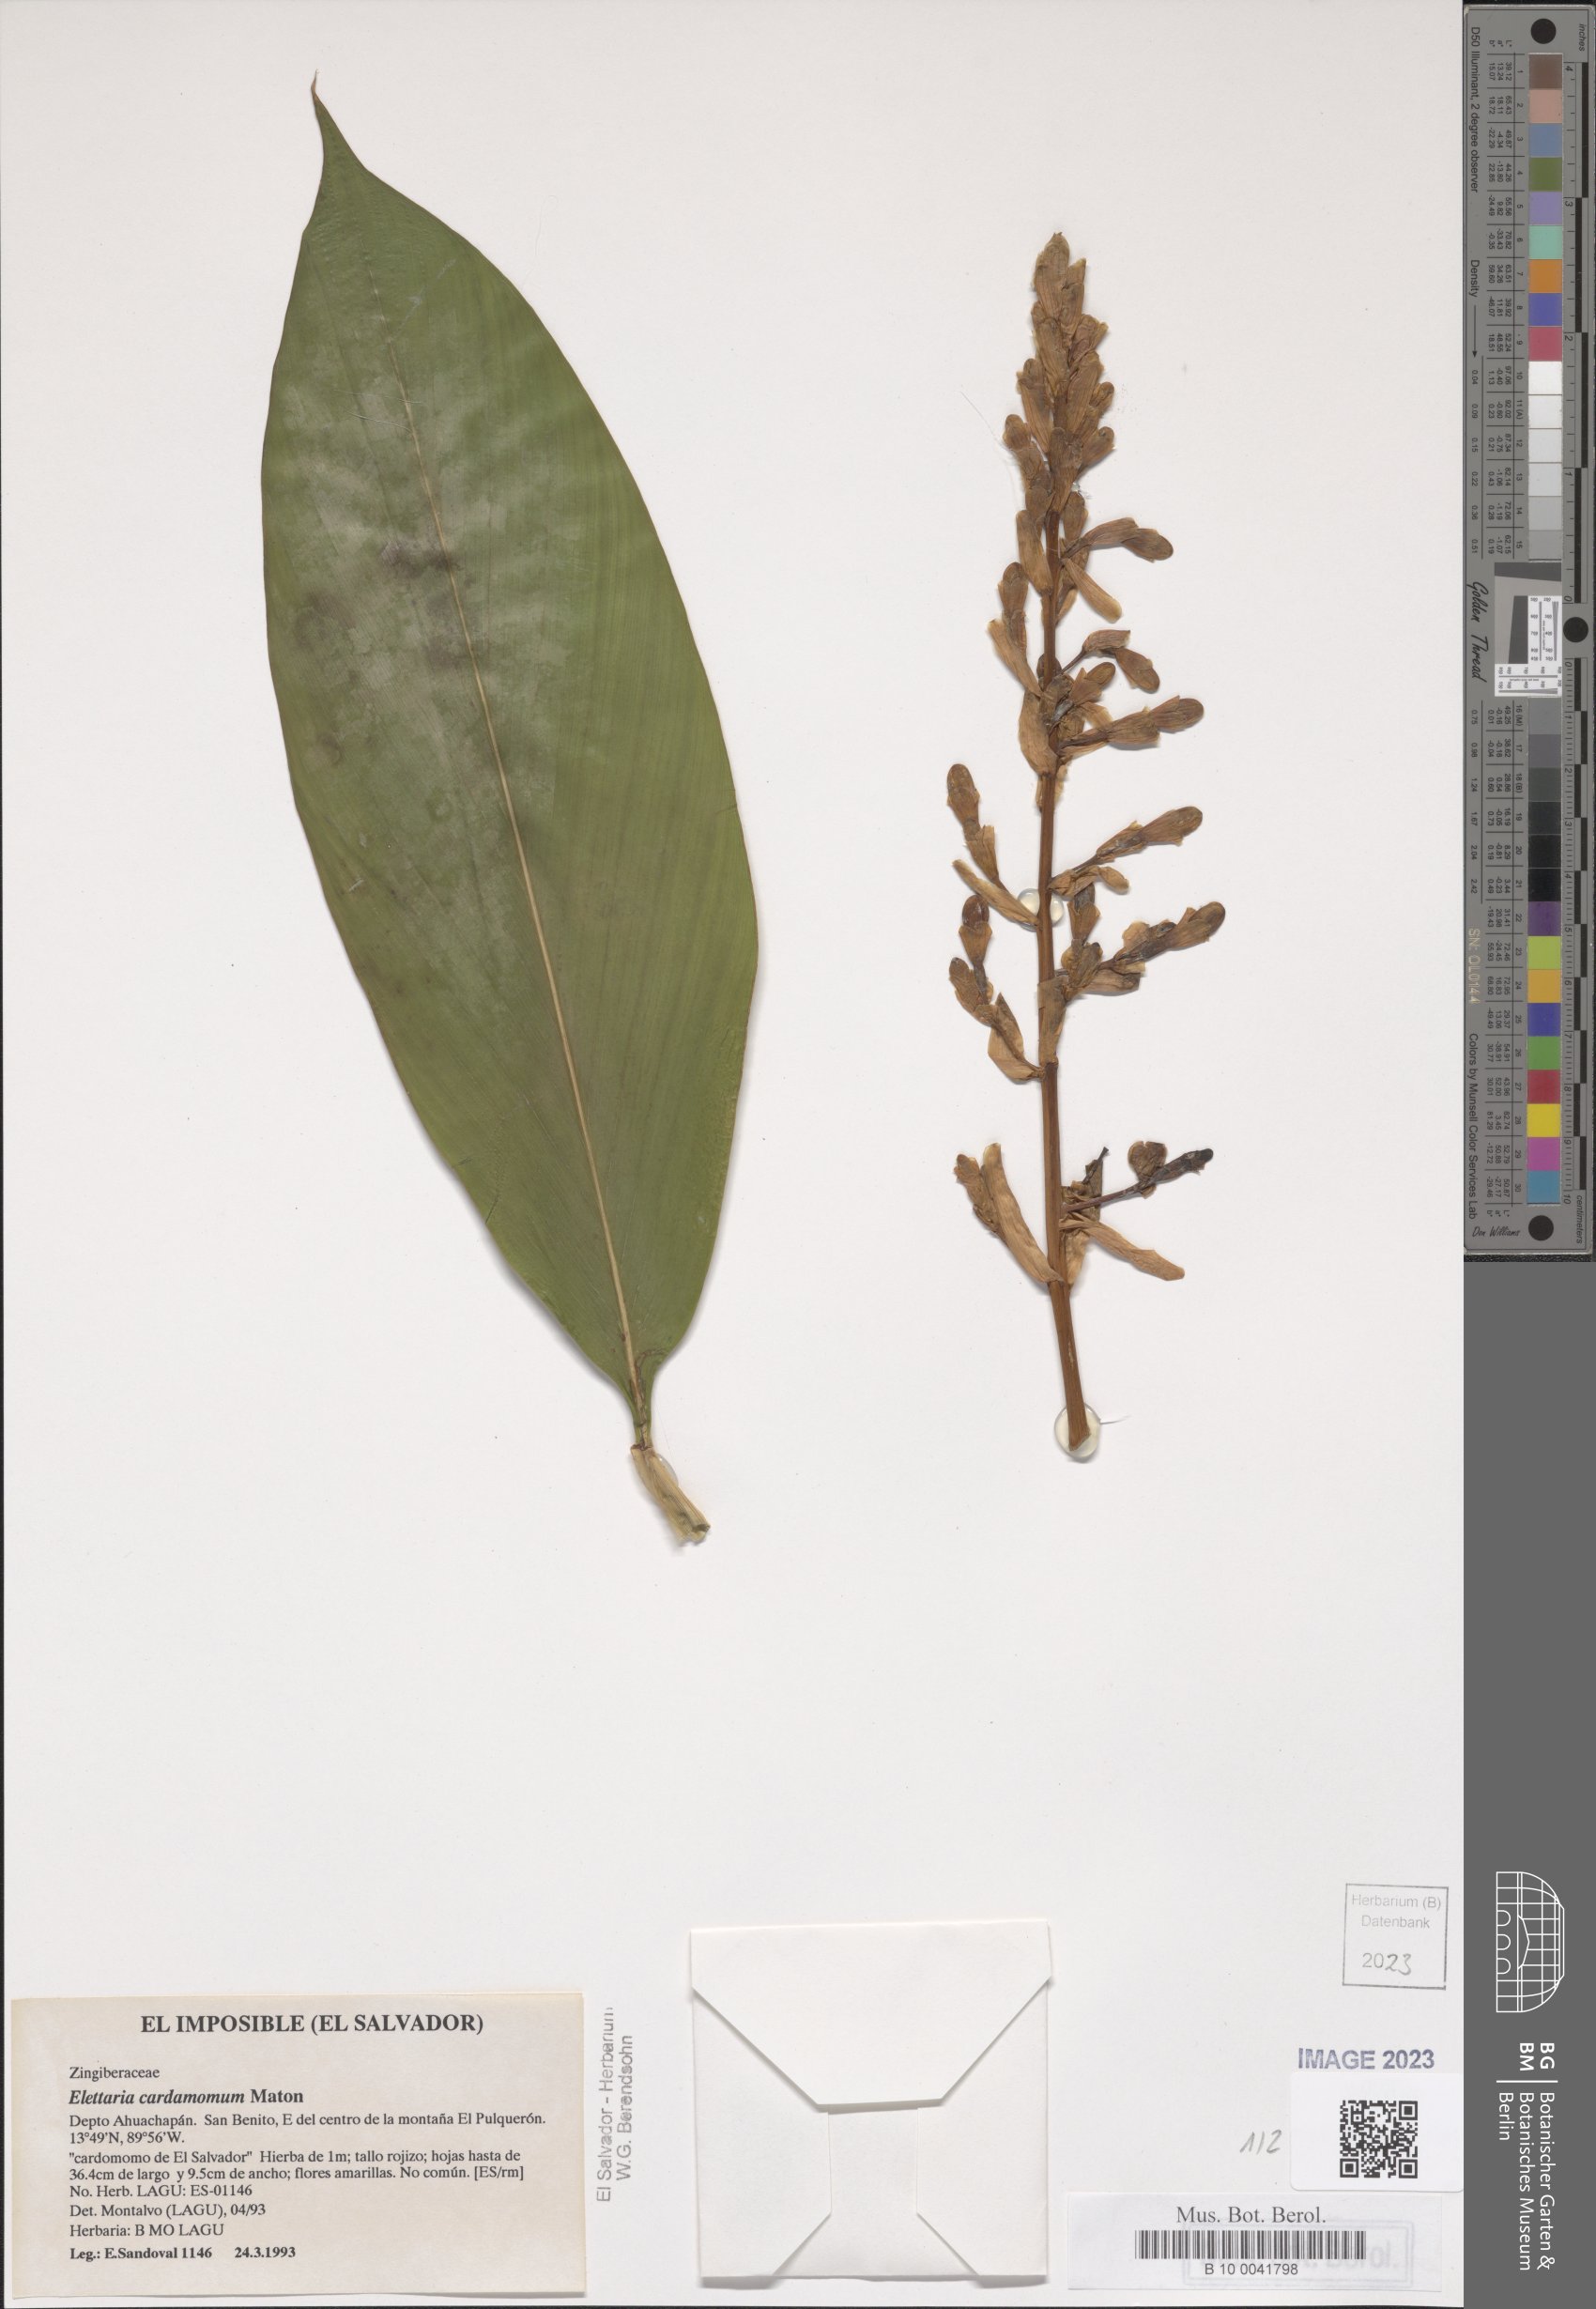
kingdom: Plantae
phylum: Tracheophyta
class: Liliopsida
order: Zingiberales
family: Zingiberaceae
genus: Renealmia
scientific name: Renealmia pacifica
